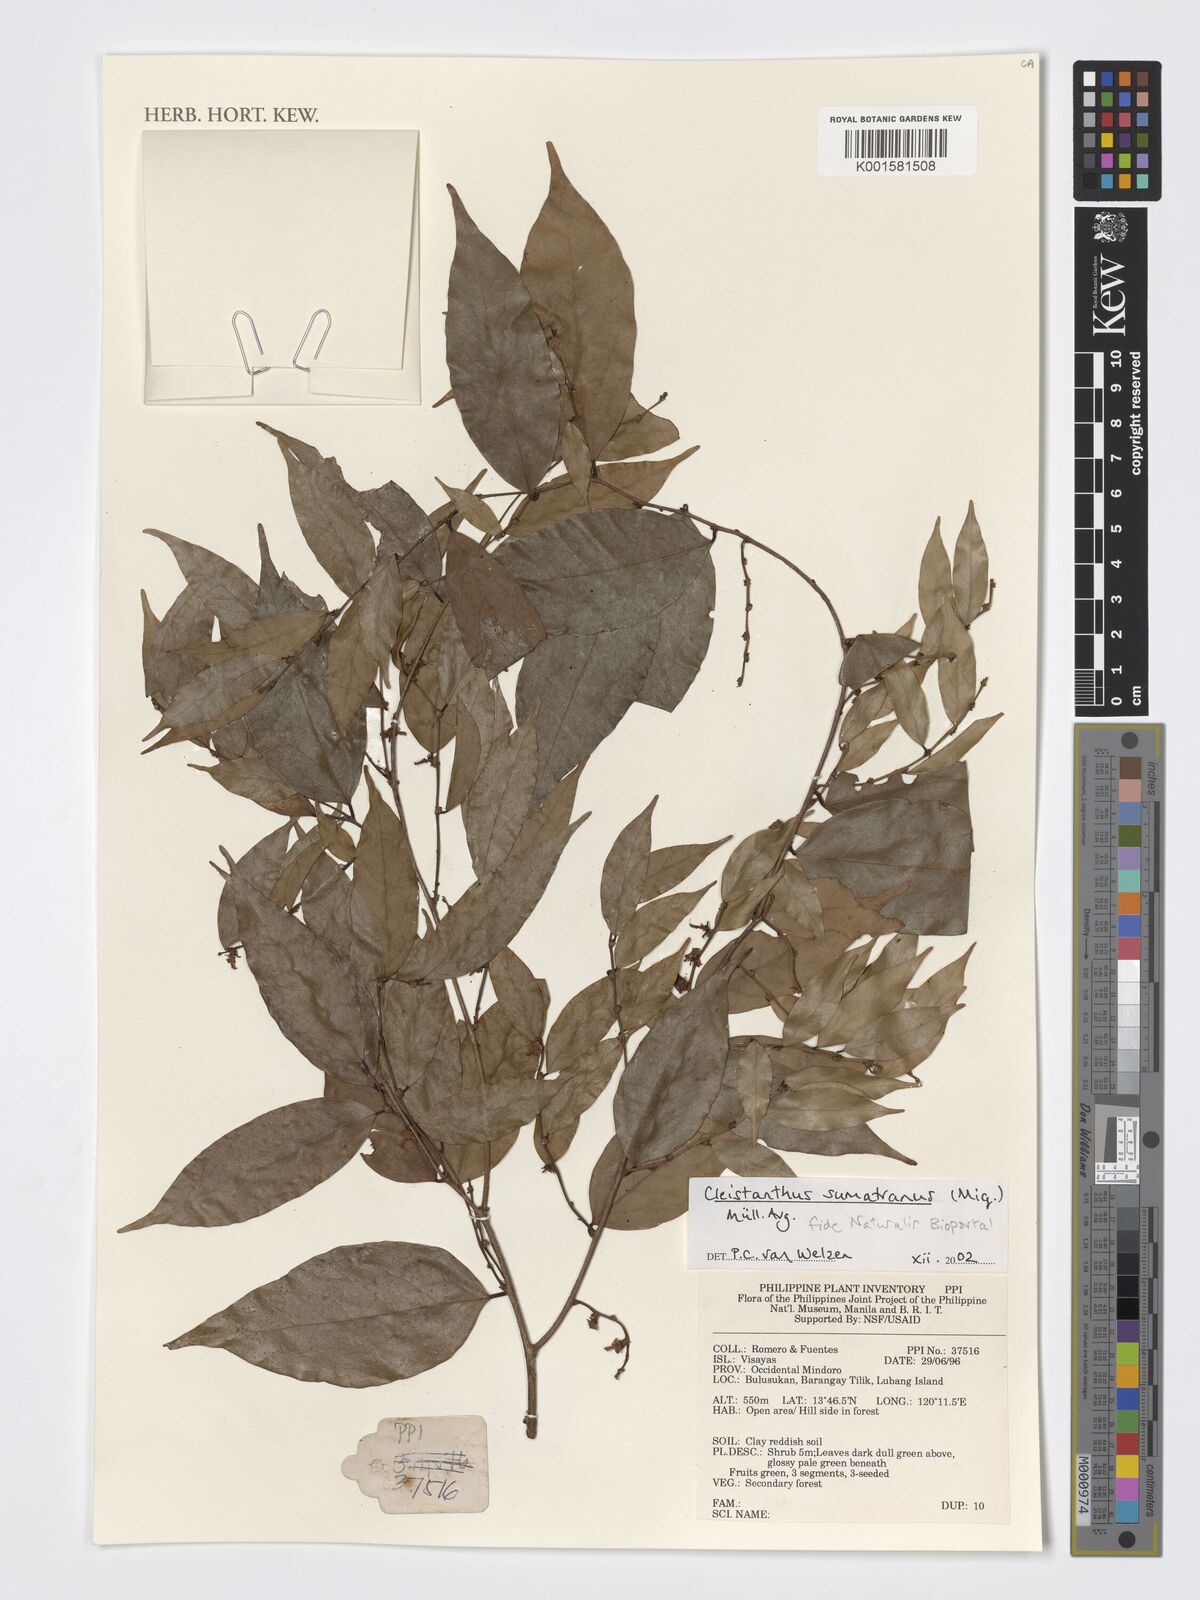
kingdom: Plantae
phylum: Tracheophyta
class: Magnoliopsida
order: Malpighiales
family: Phyllanthaceae
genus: Cleistanthus
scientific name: Cleistanthus sumatranus
